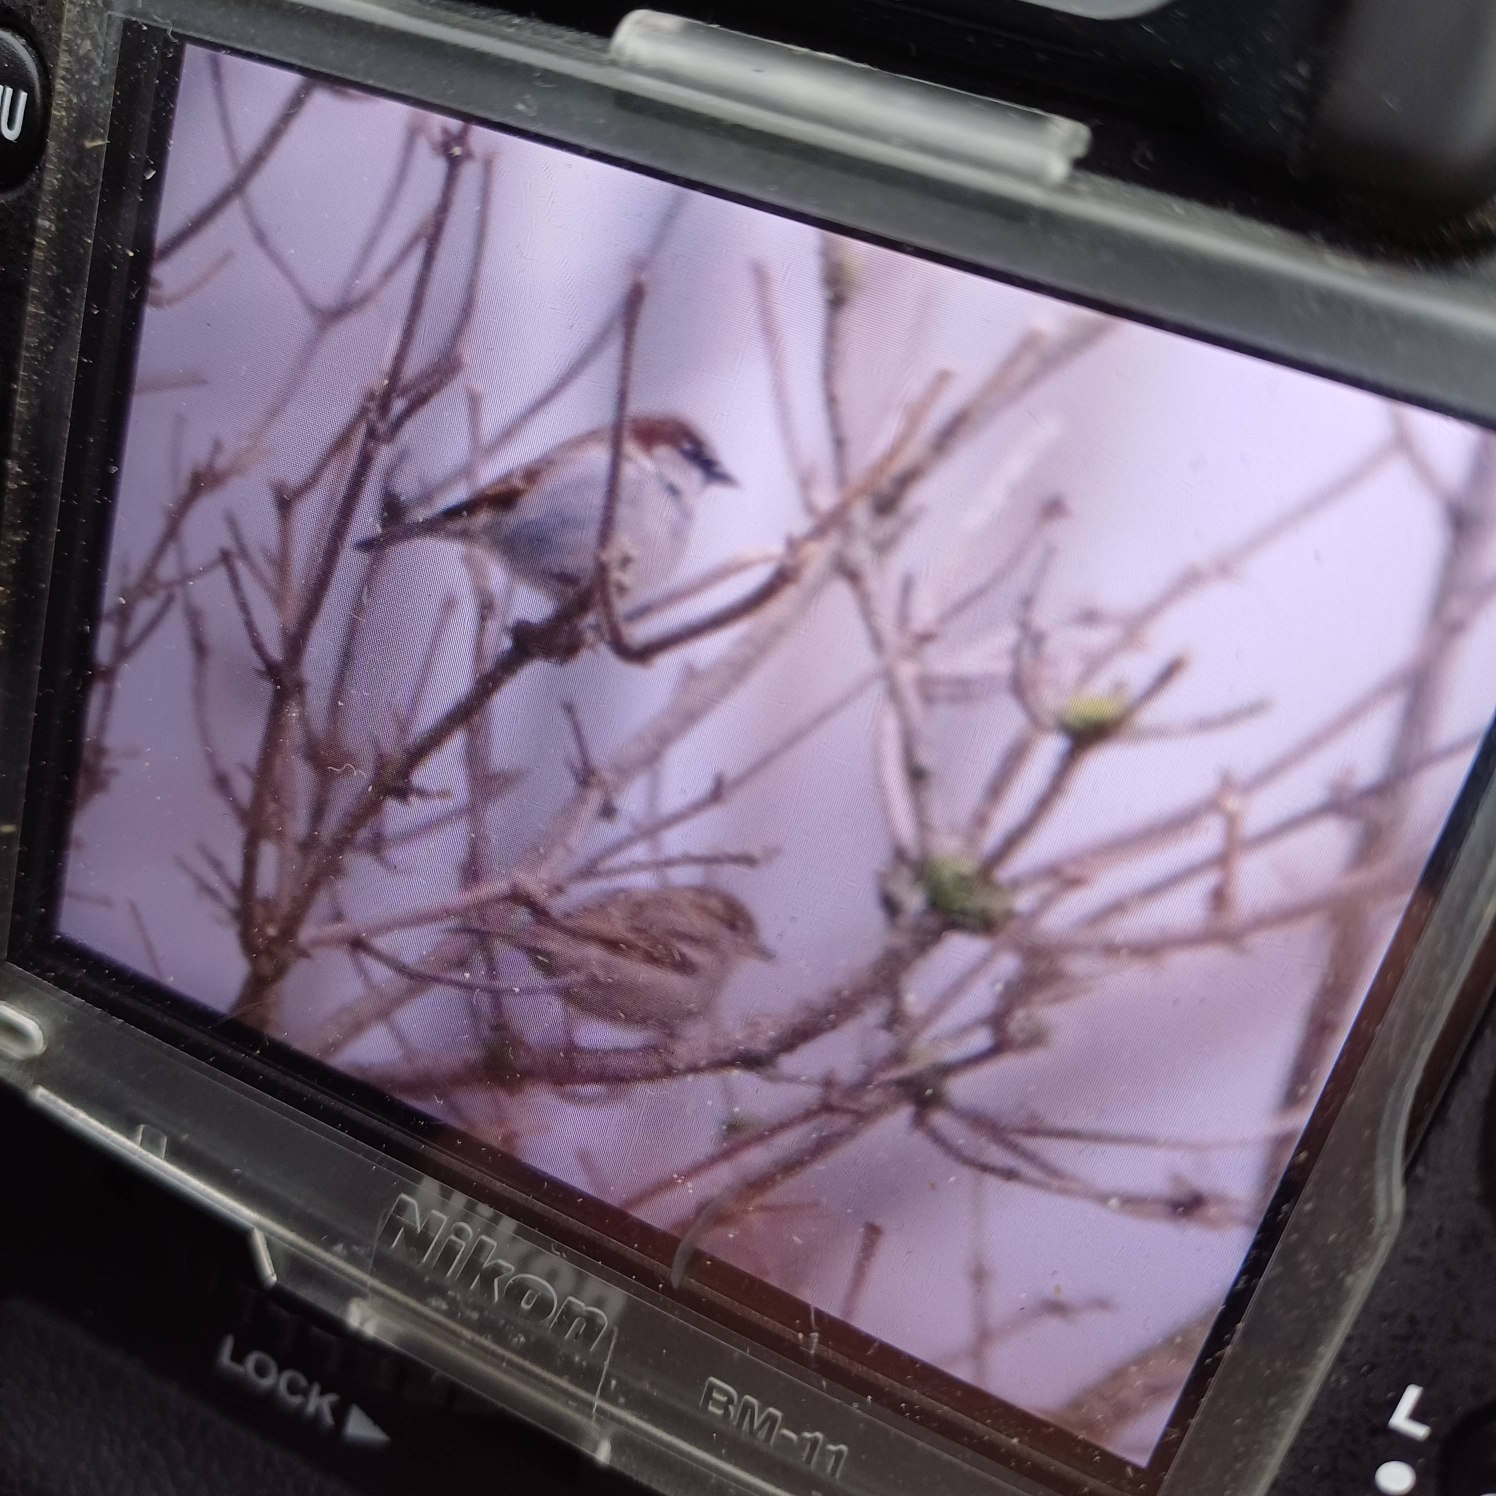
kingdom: Animalia
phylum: Chordata
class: Aves
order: Passeriformes
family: Passeridae
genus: Passer
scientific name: Passer domesticus
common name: Gråspurv
